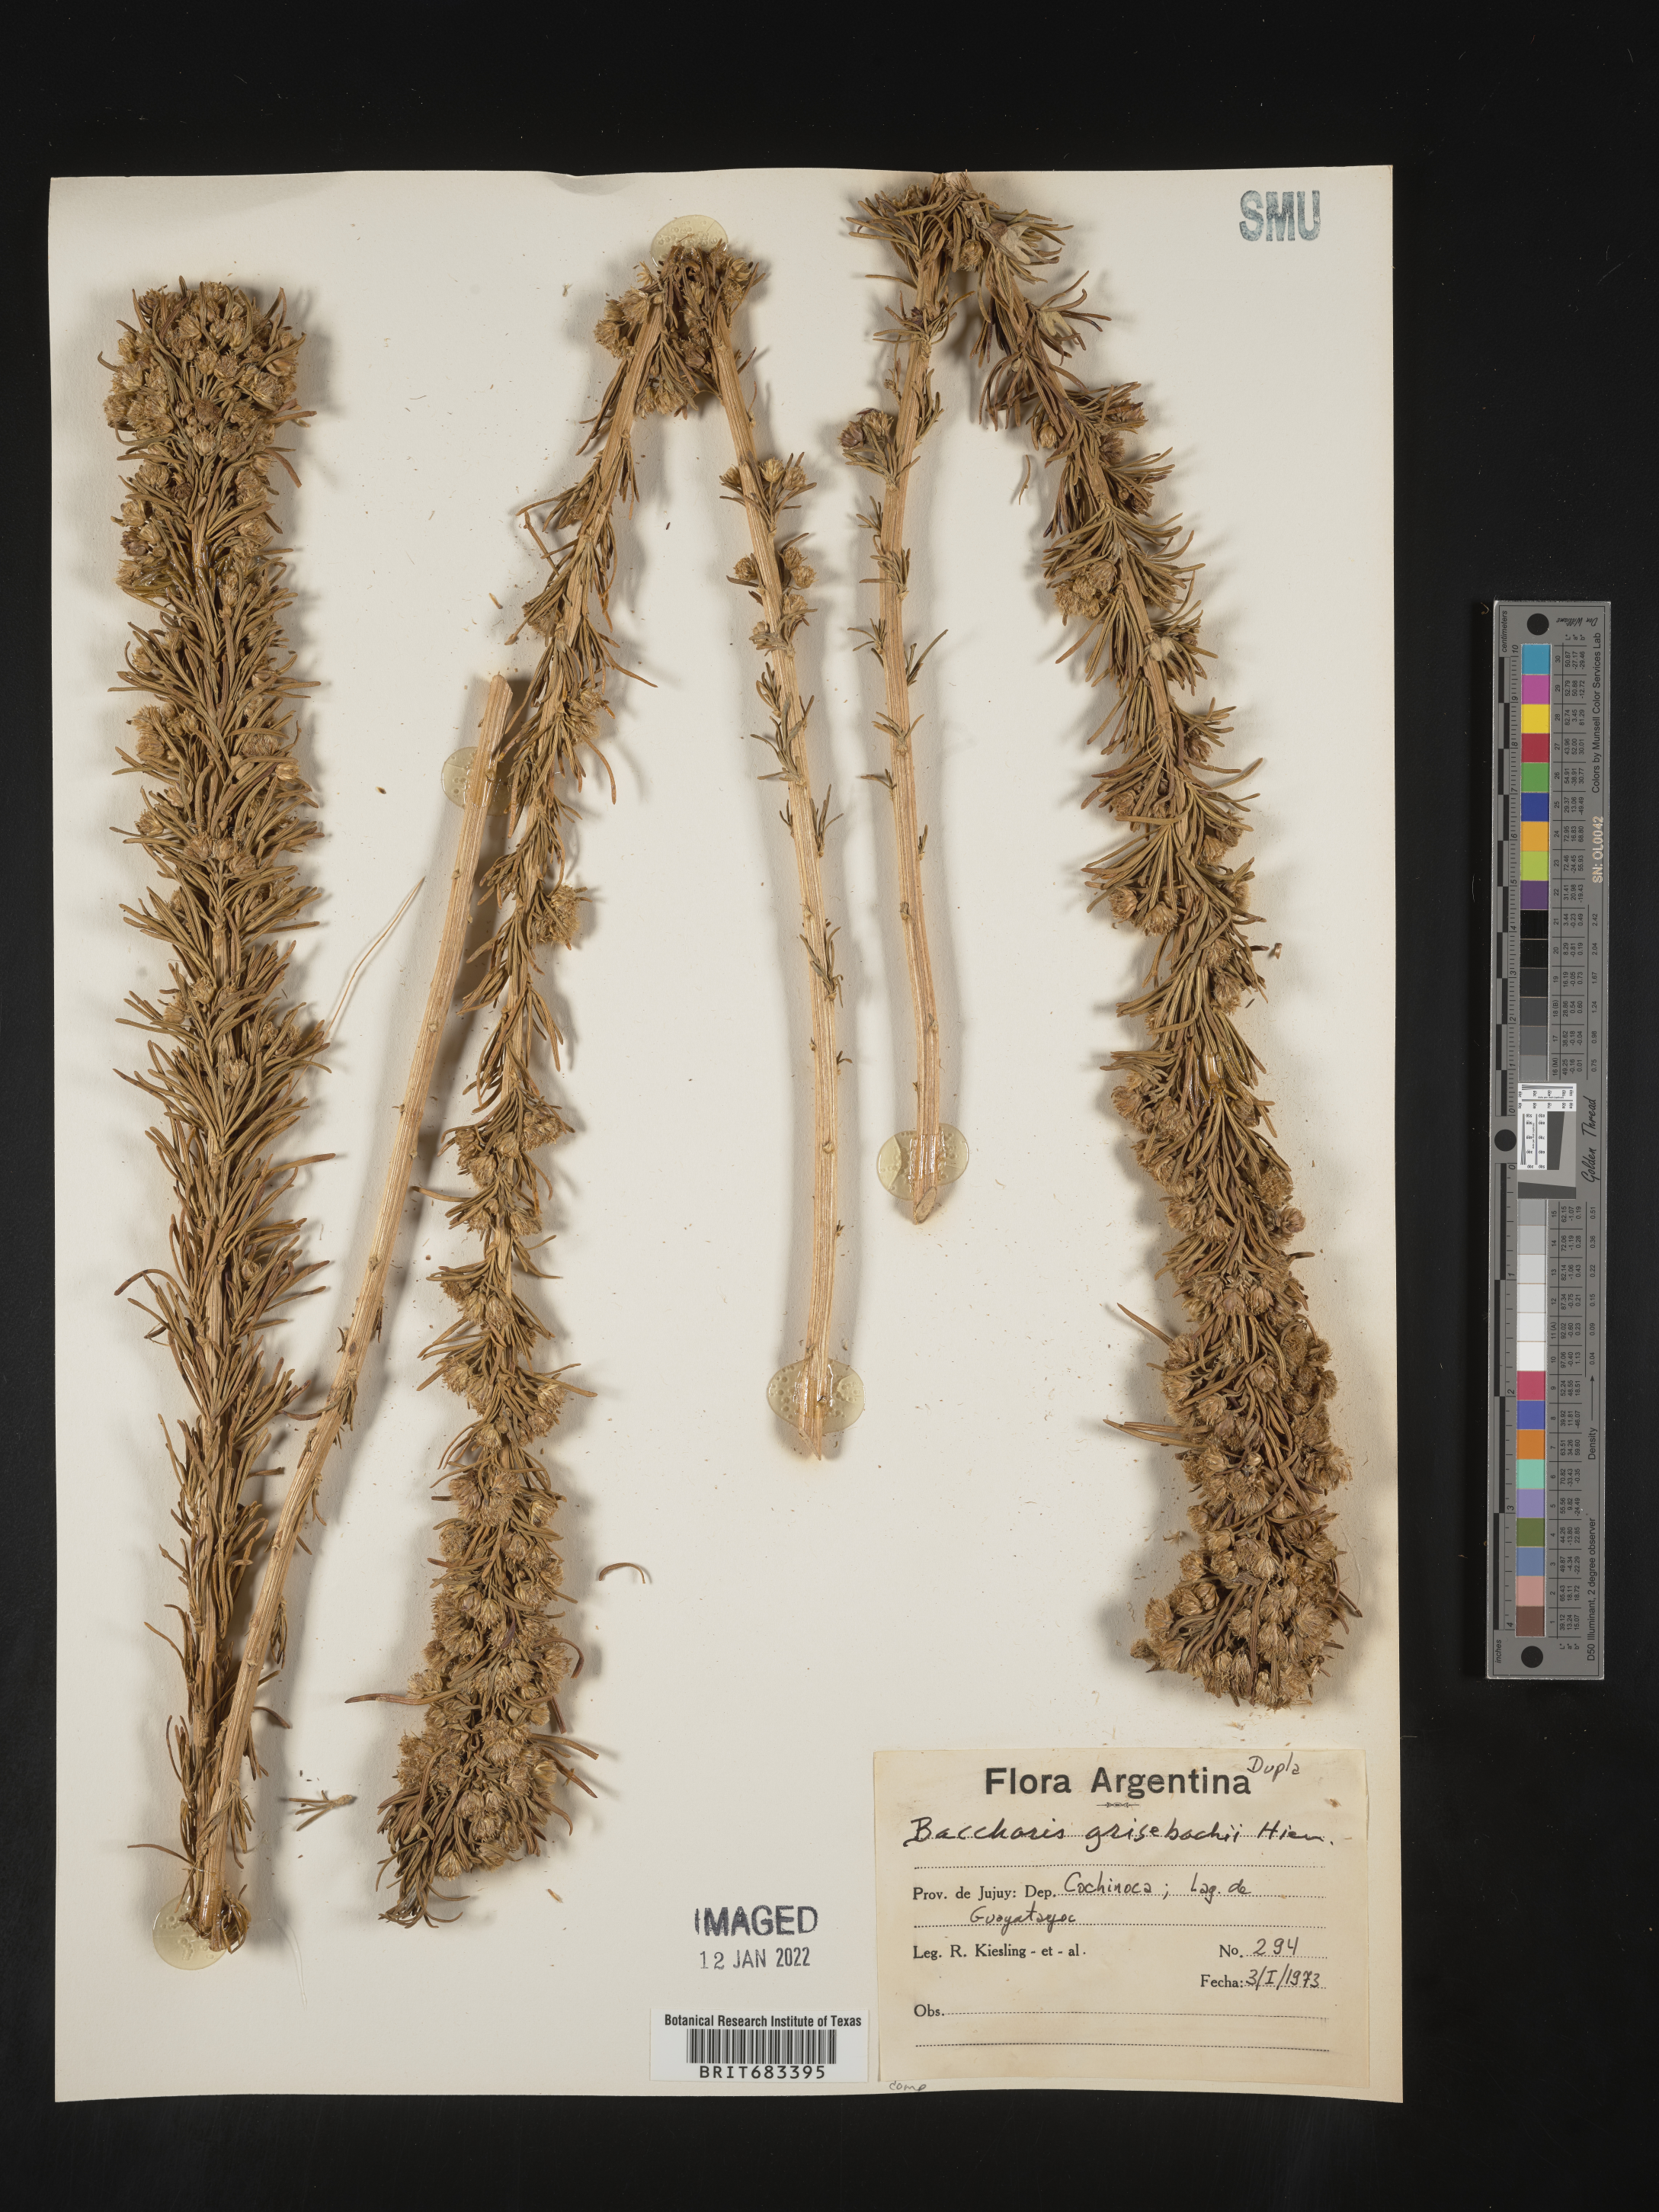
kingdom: Plantae
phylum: Tracheophyta
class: Magnoliopsida
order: Asterales
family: Asteraceae
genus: Baccharis
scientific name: Baccharis
